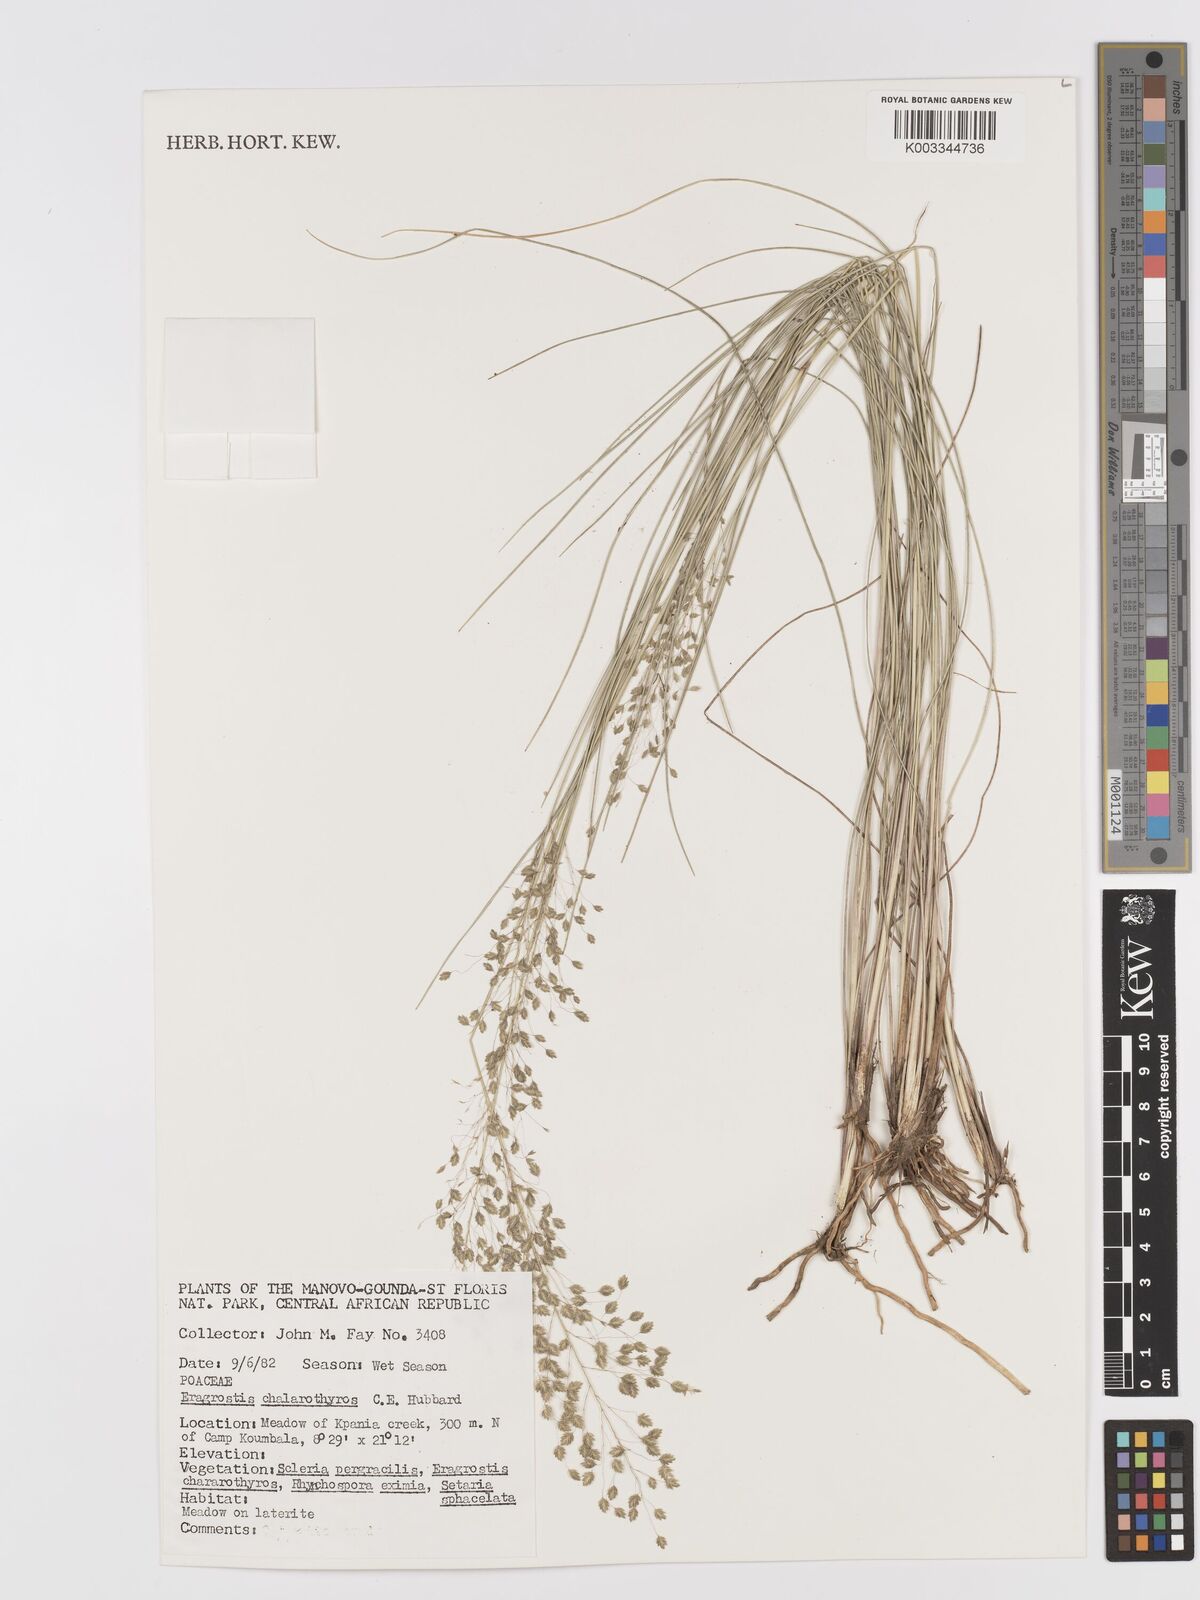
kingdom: Plantae
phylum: Tracheophyta
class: Liliopsida
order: Poales
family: Poaceae
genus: Eragrostis
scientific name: Eragrostis chalarothyrsos
